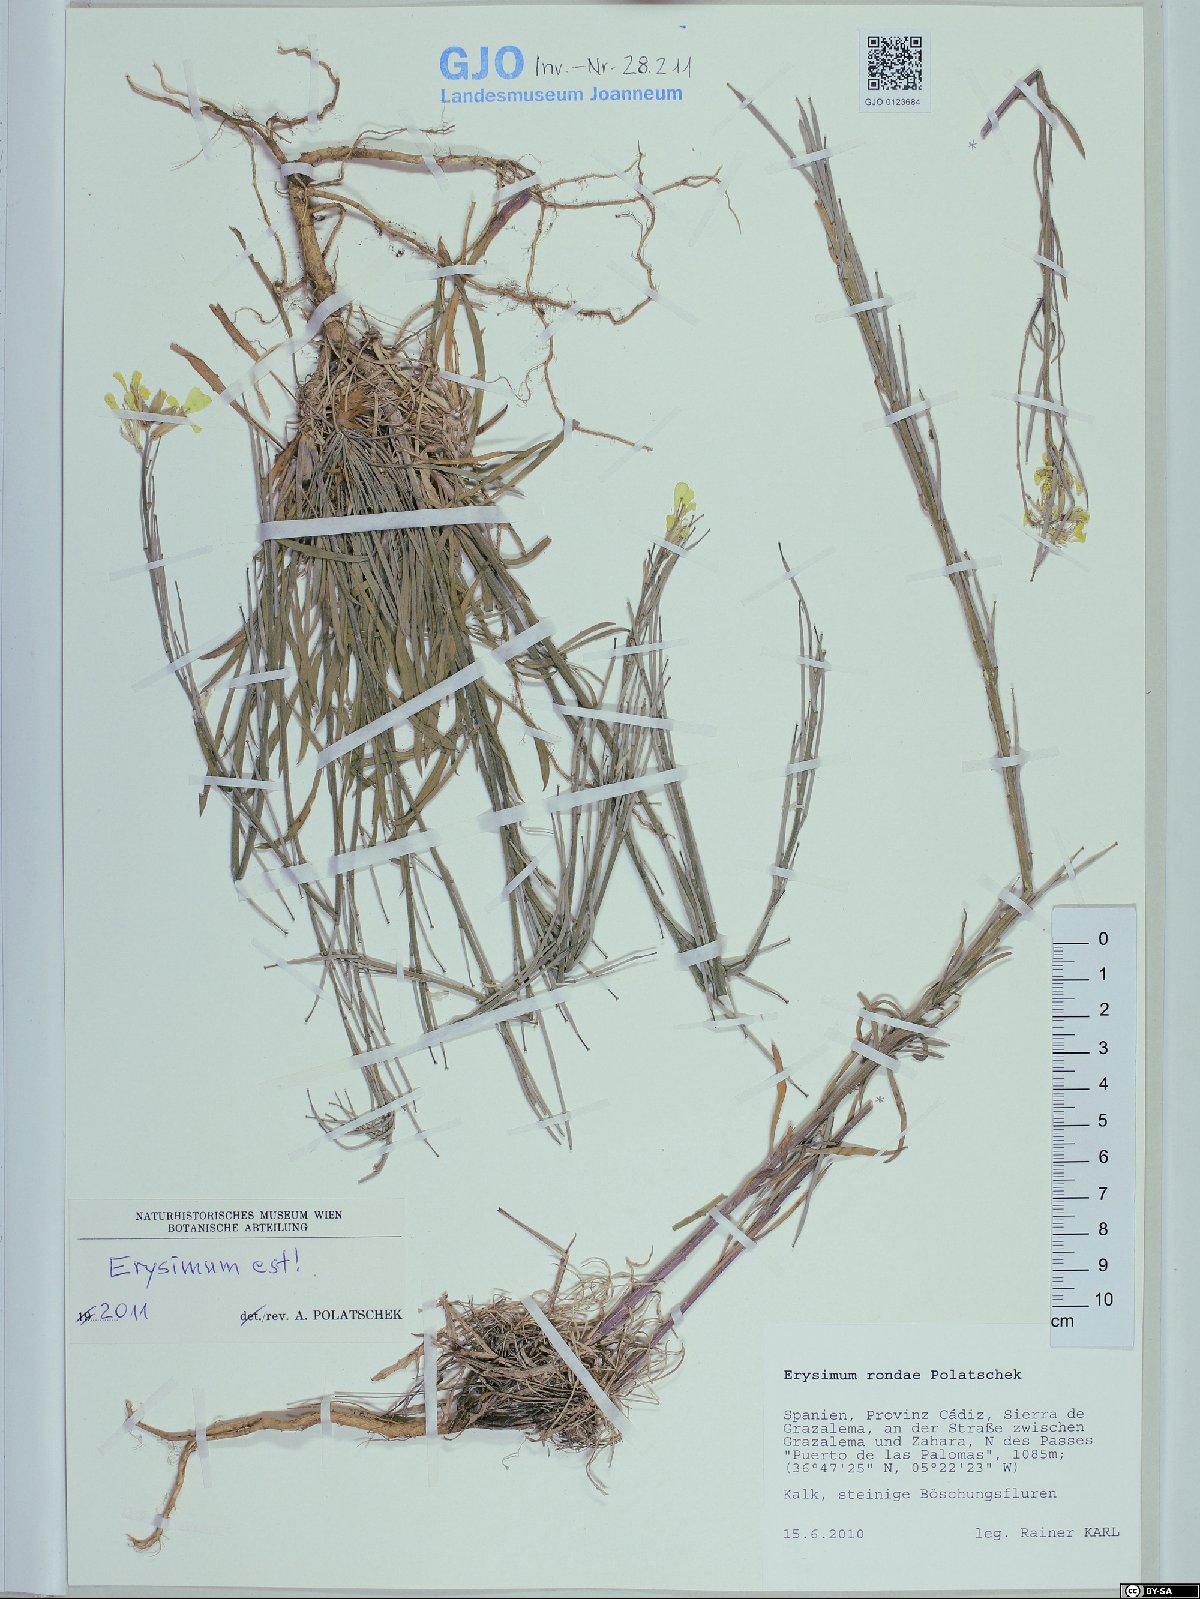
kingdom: Plantae
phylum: Tracheophyta
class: Magnoliopsida
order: Brassicales
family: Brassicaceae
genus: Erysimum
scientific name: Erysimum nevadense
